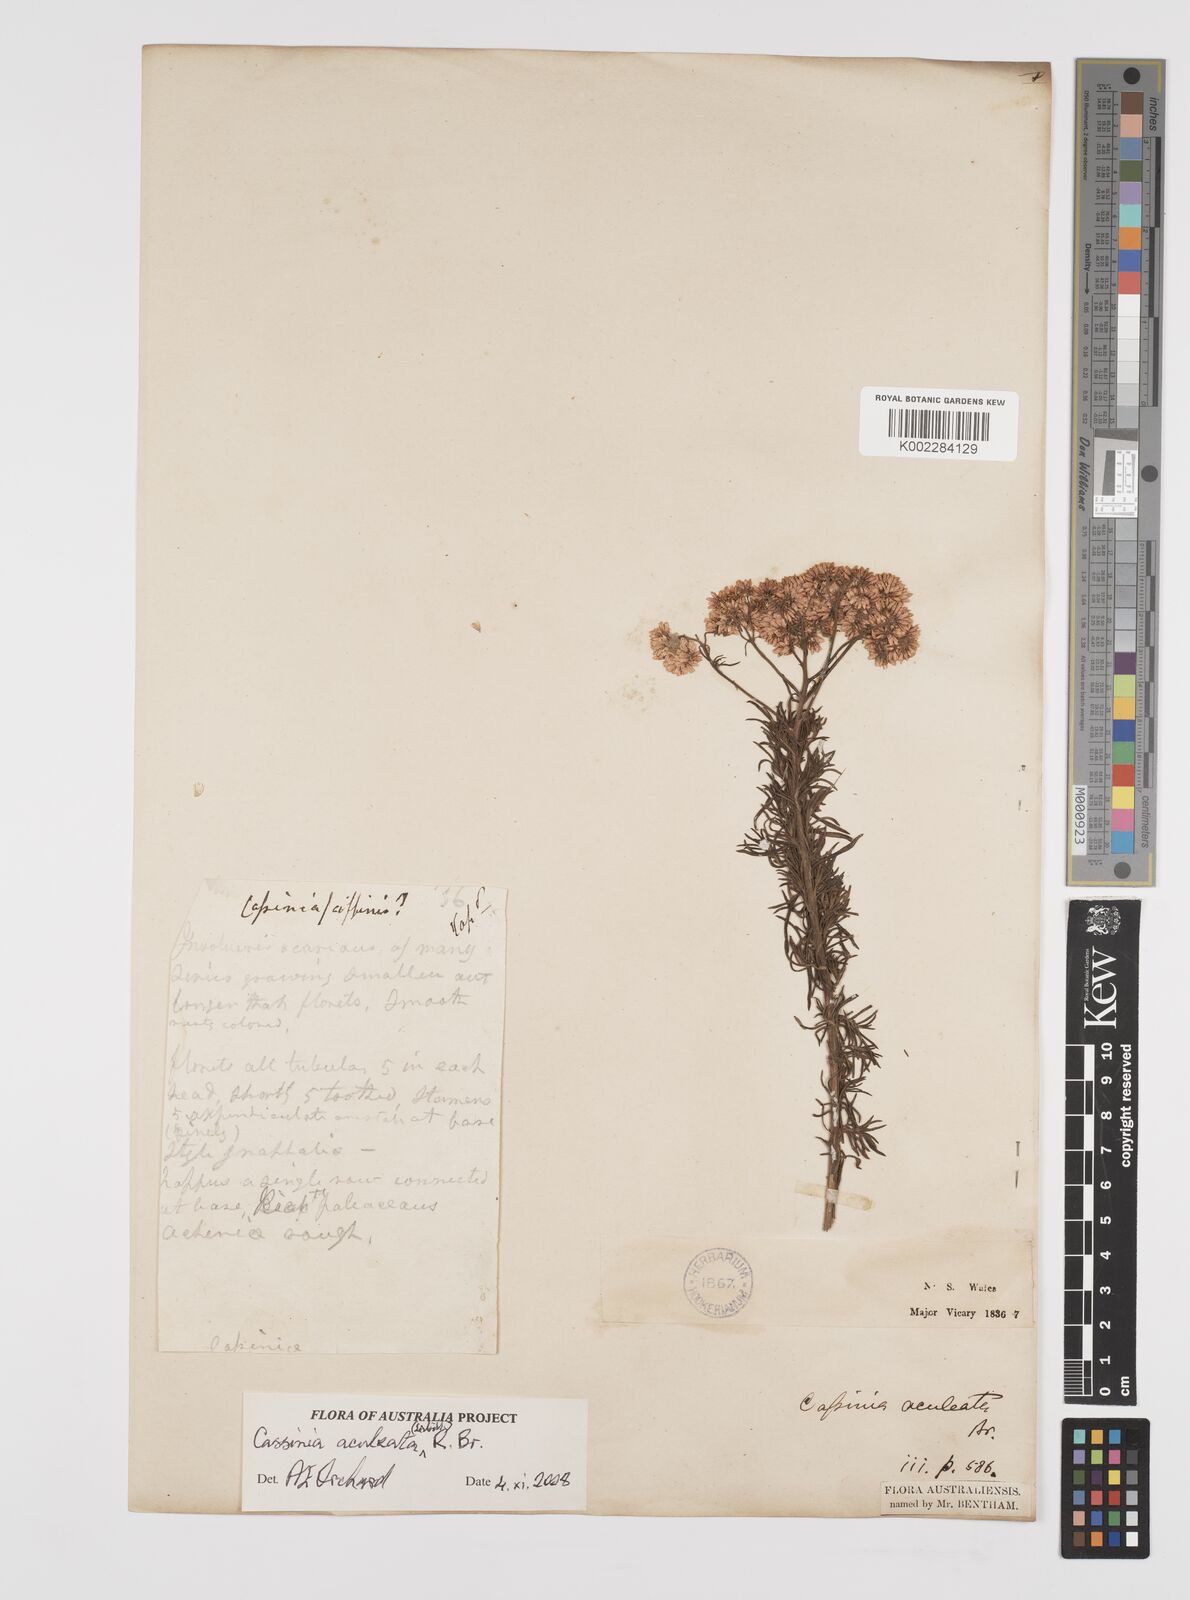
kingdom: Plantae
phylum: Tracheophyta
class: Magnoliopsida
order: Asterales
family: Asteraceae
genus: Cassinia
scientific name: Cassinia aculeata
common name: Australian tauhinu
